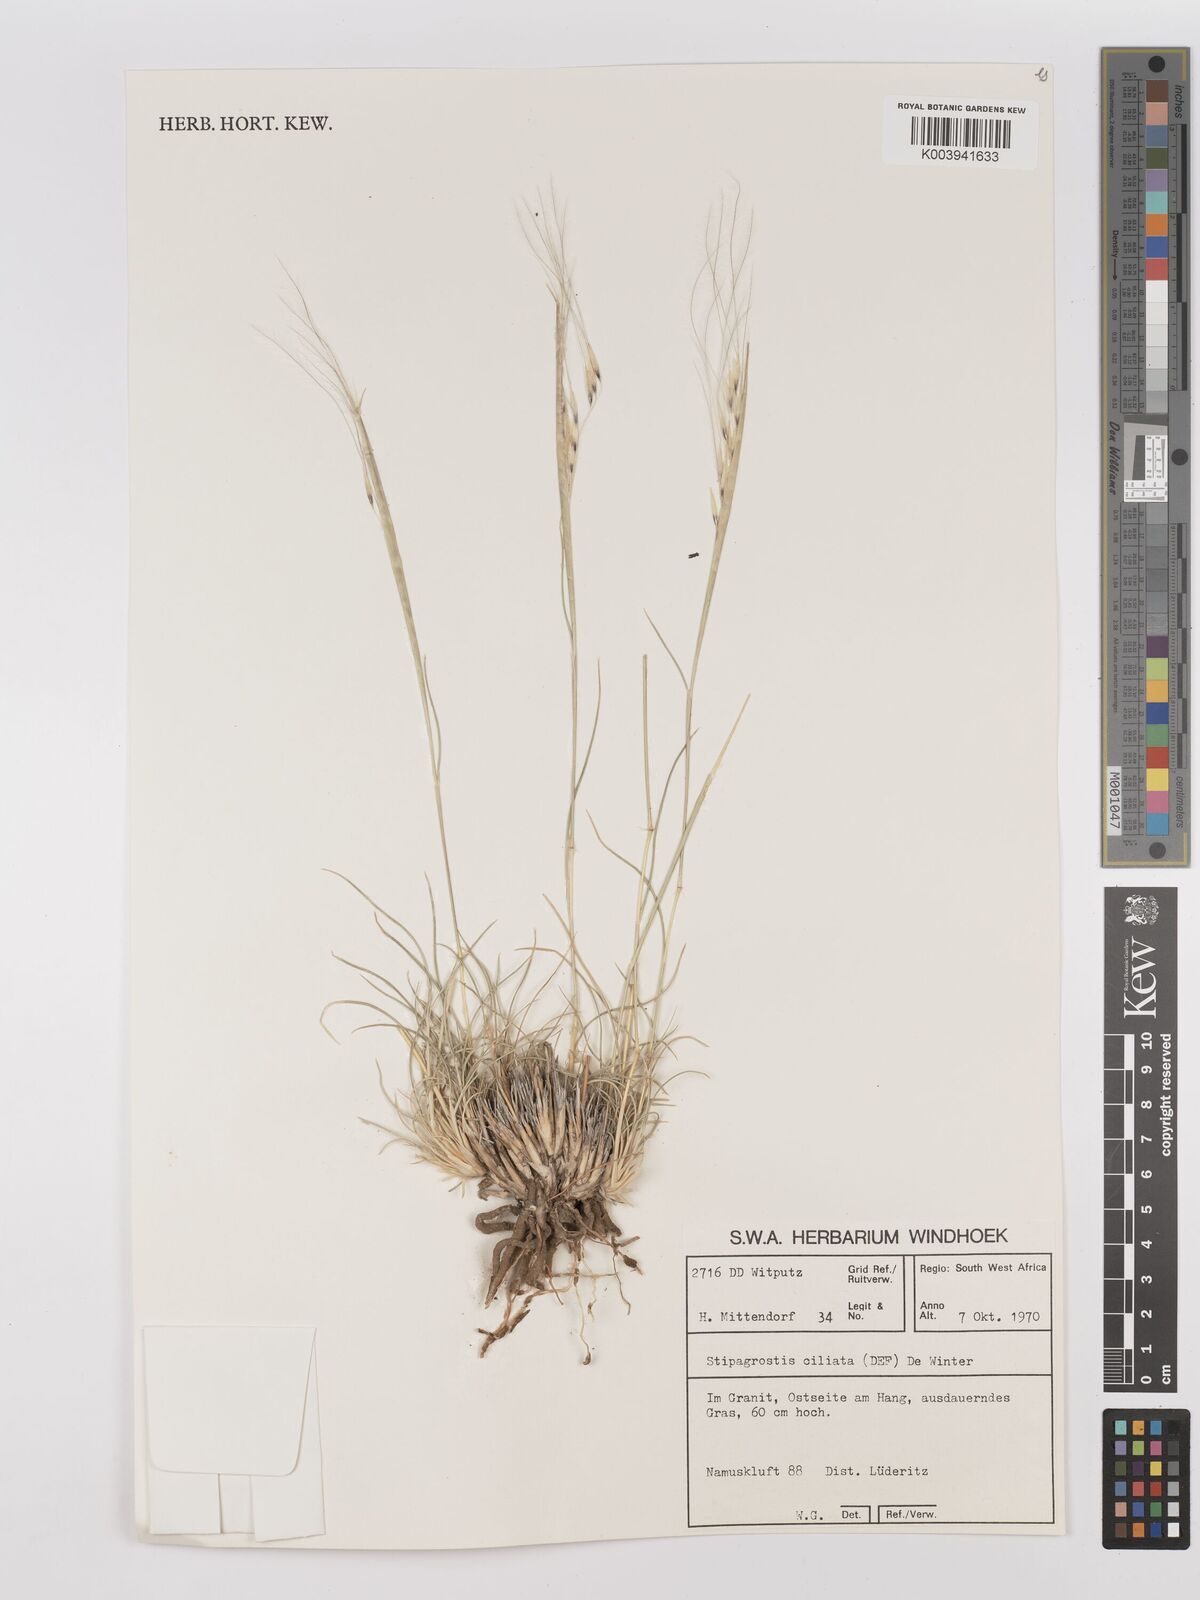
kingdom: Plantae
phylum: Tracheophyta
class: Liliopsida
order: Poales
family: Poaceae
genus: Stipagrostis
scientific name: Stipagrostis ciliata
